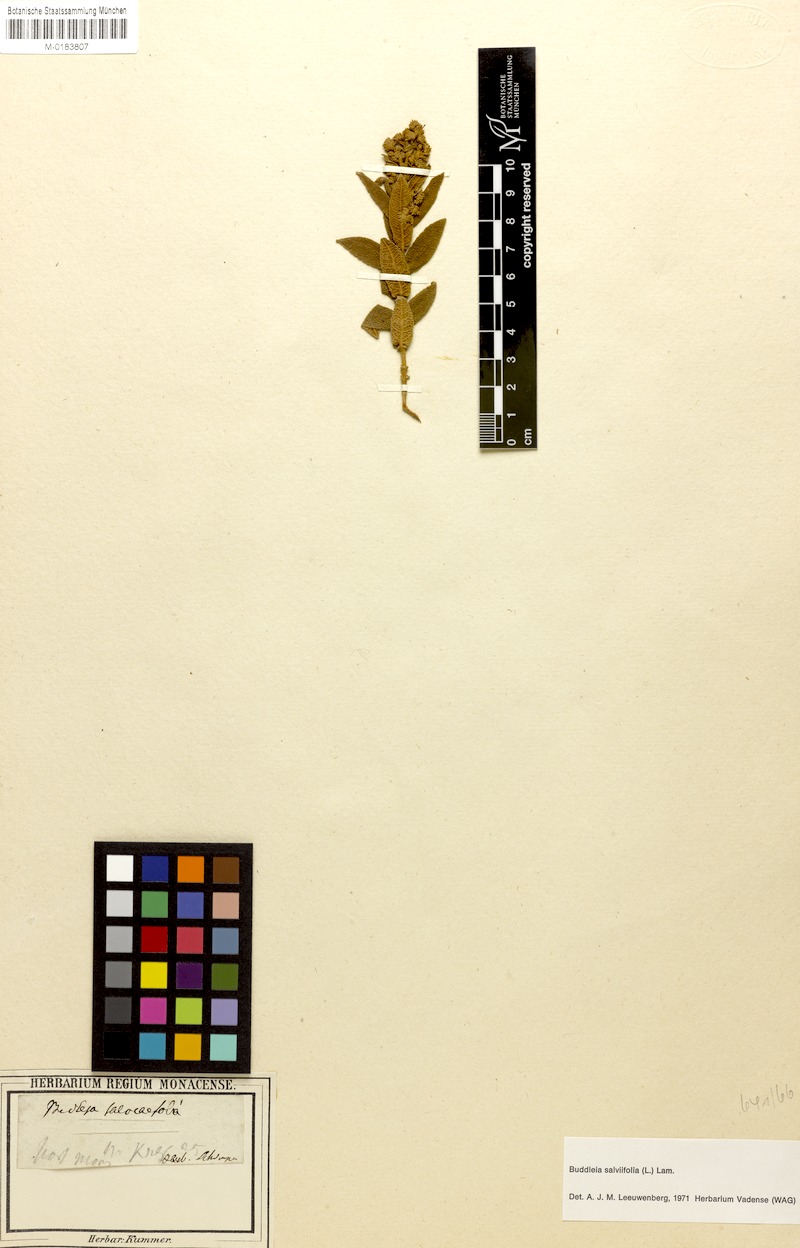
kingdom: Plantae
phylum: Tracheophyta
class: Magnoliopsida
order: Lamiales
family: Scrophulariaceae
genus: Buddleja
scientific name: Buddleja salviifolia
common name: Sagewood
